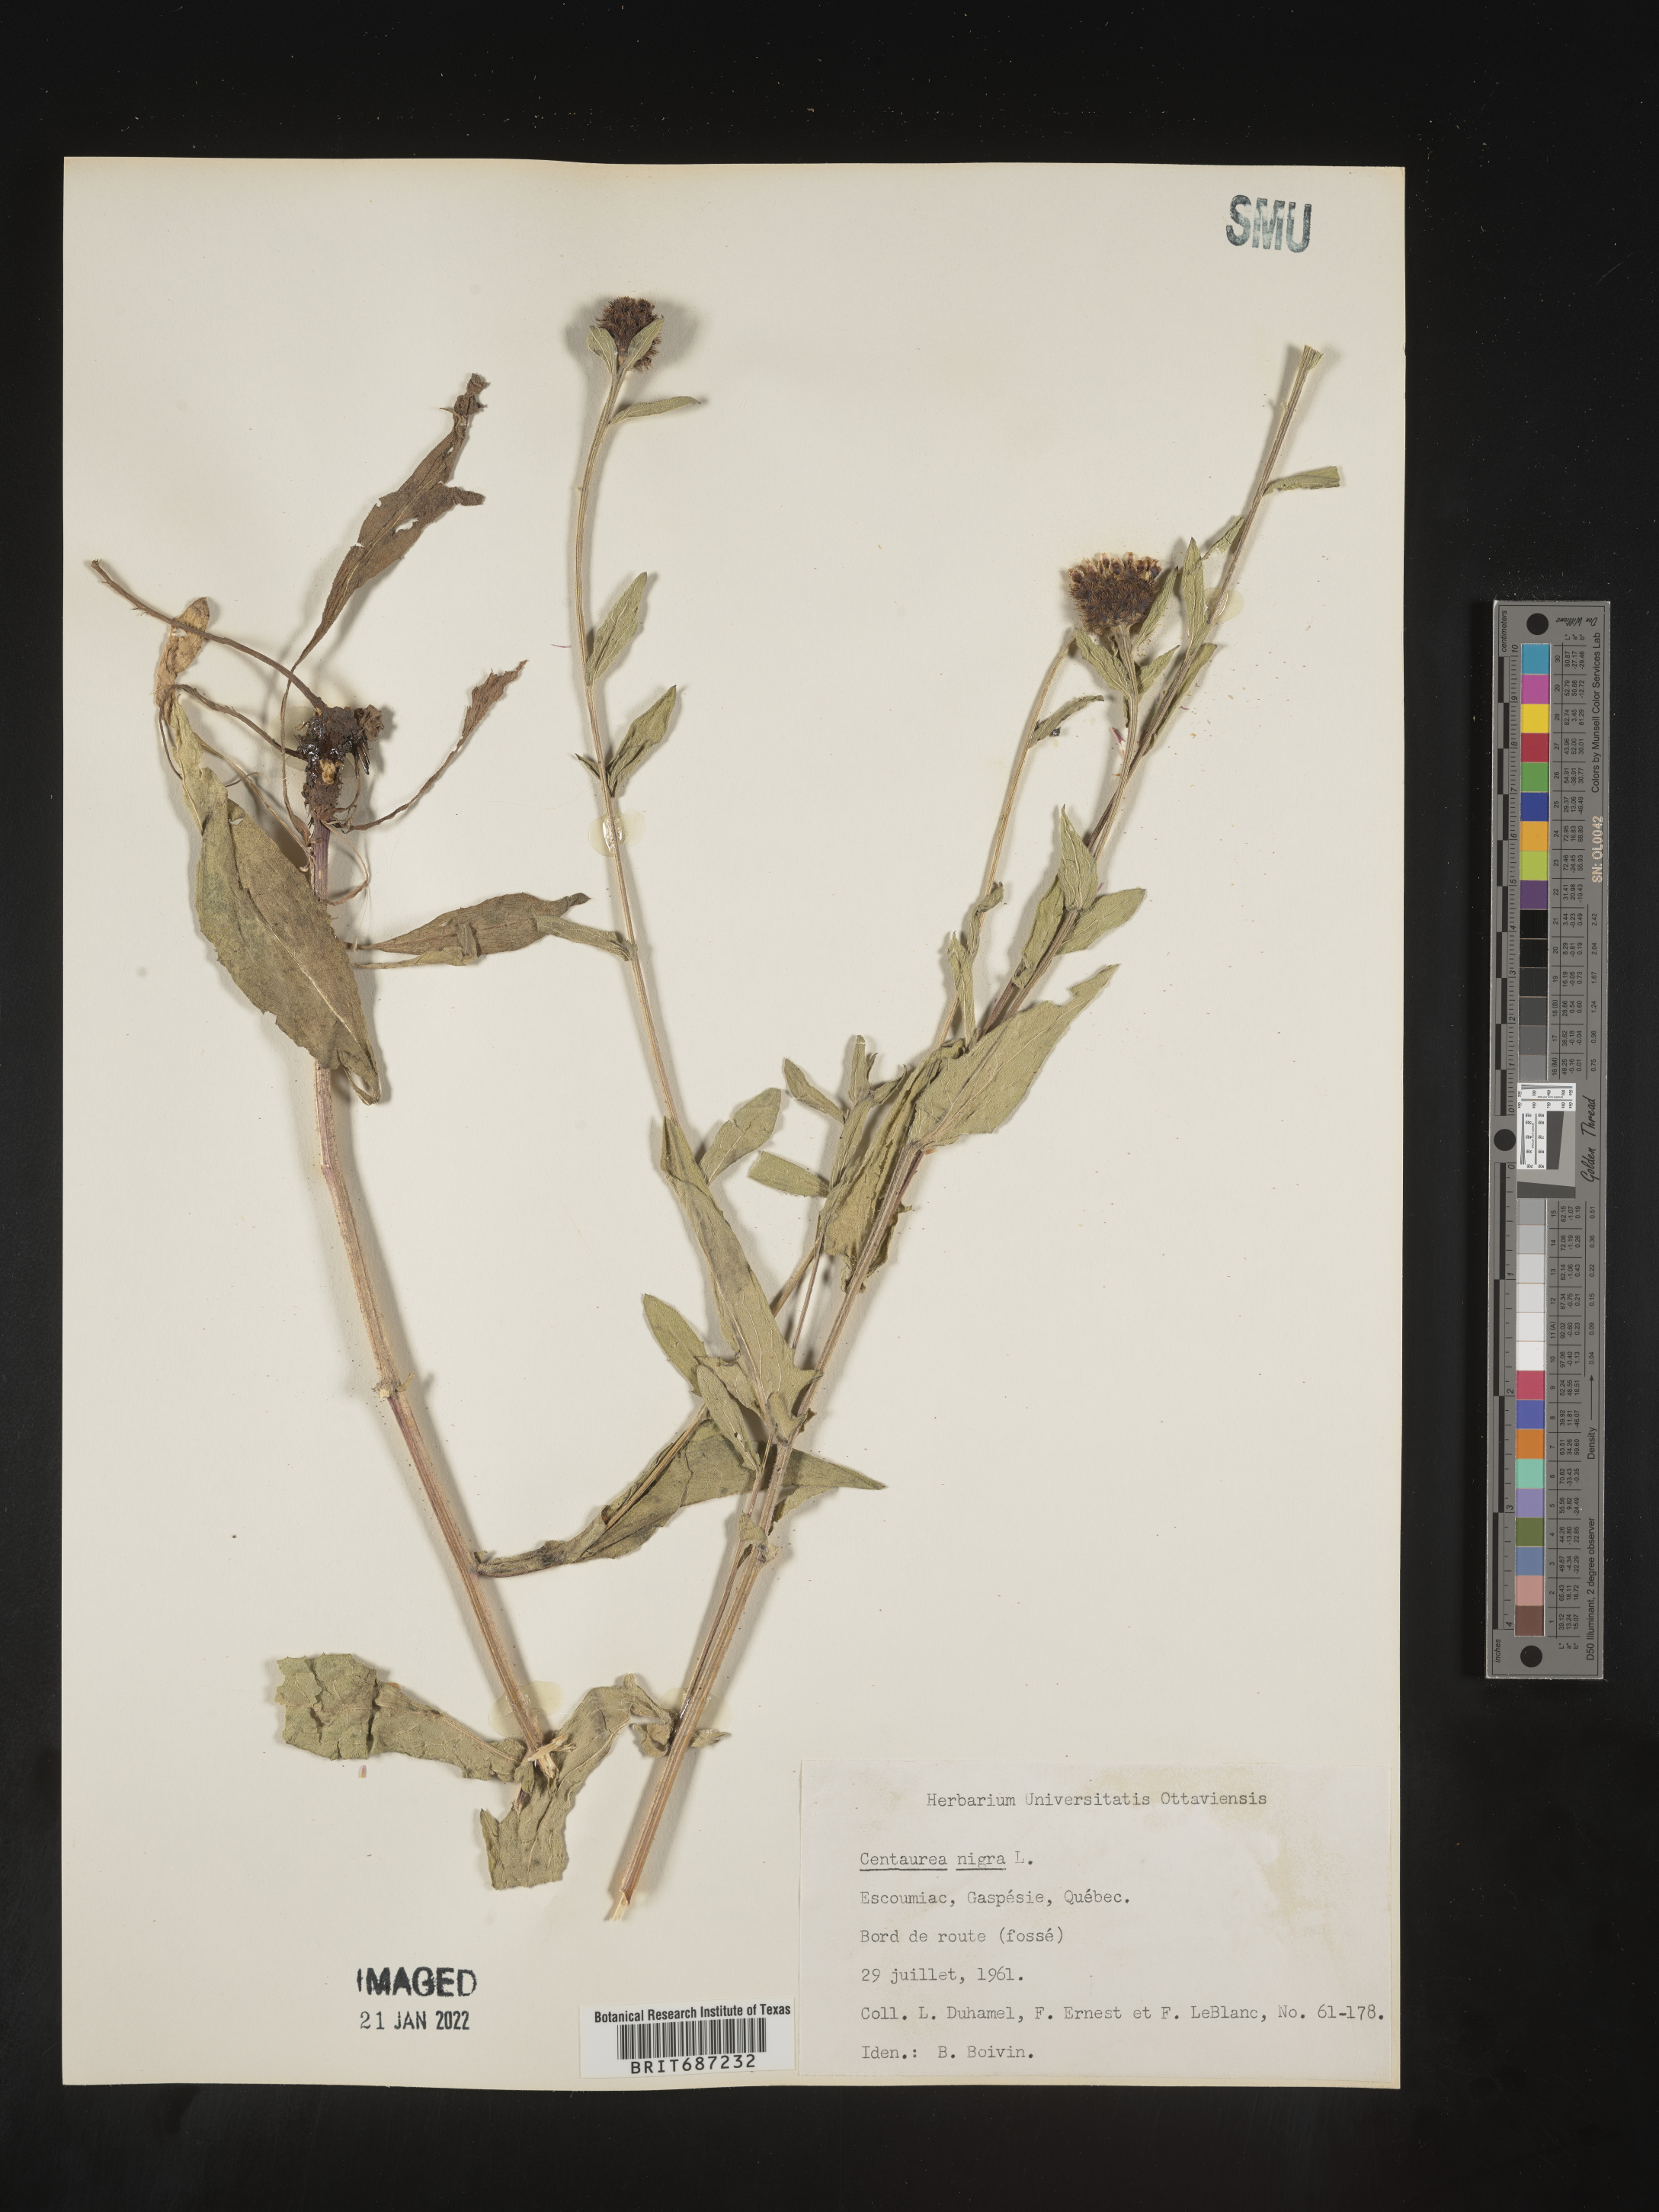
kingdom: Plantae
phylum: Tracheophyta
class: Magnoliopsida
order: Asterales
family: Asteraceae
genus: Centaurea
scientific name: Centaurea nigra
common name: Lesser knapweed
